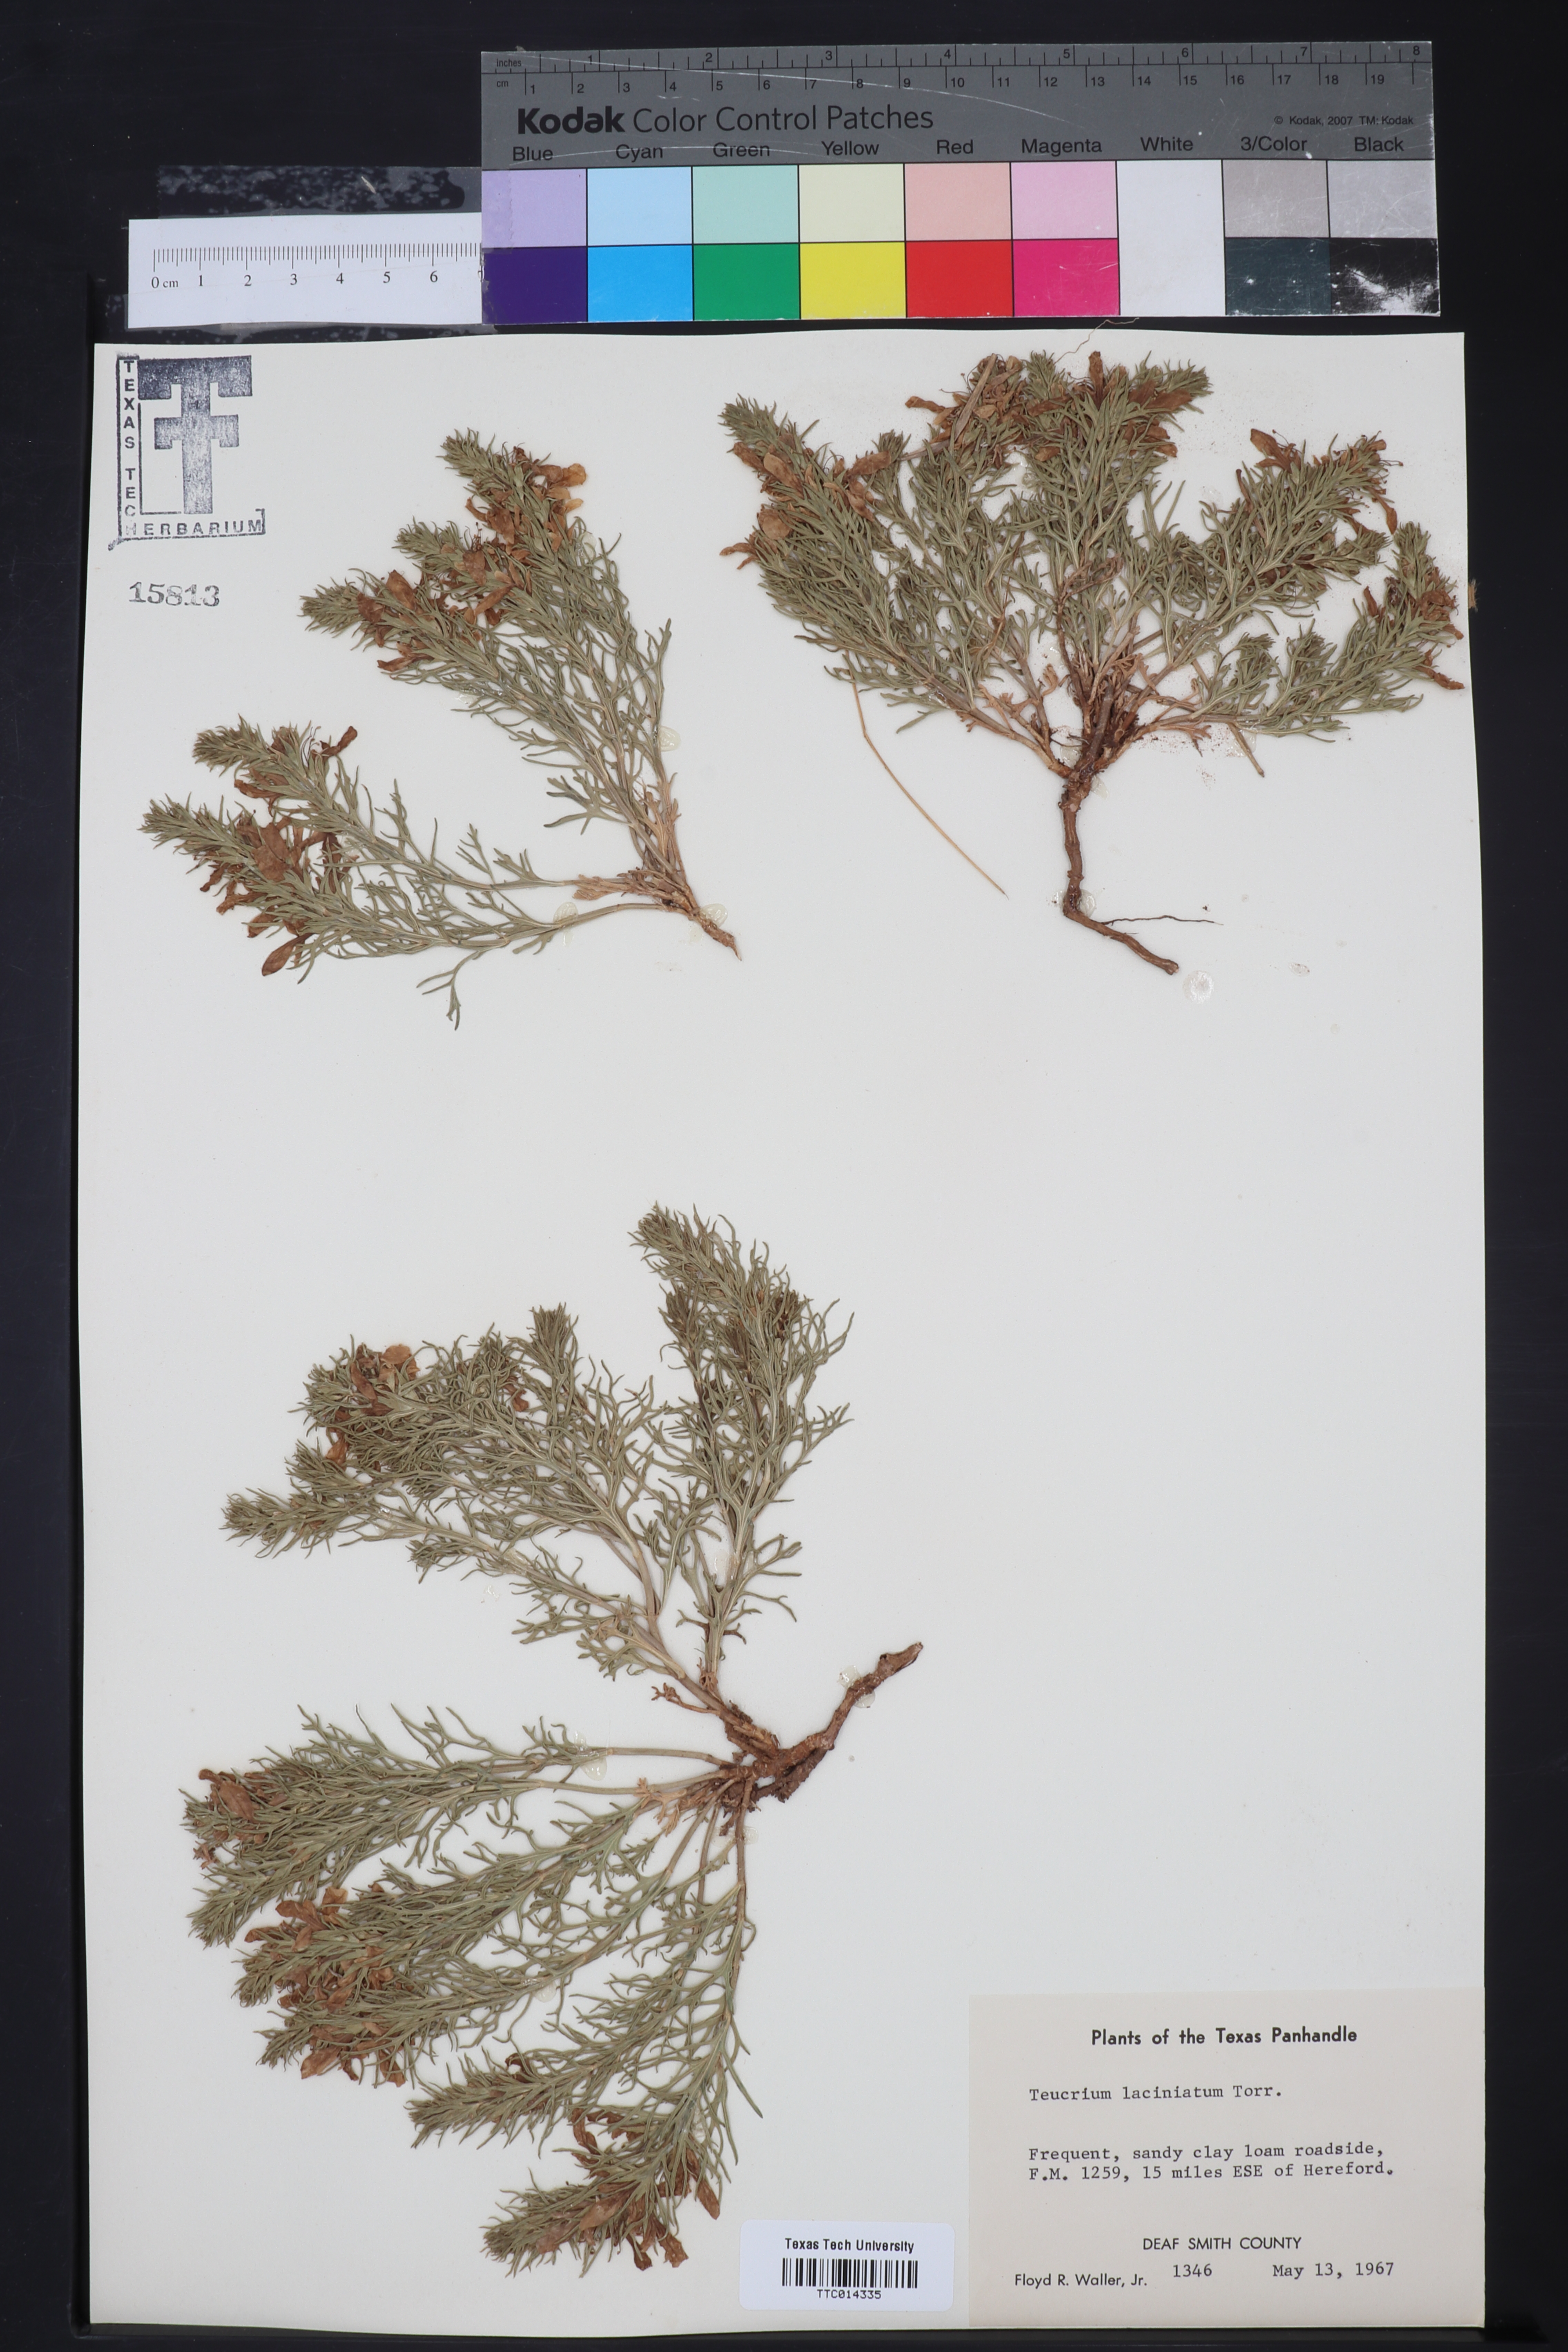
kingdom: Plantae
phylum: Tracheophyta
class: Magnoliopsida
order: Lamiales
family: Lamiaceae
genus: Teucrium
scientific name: Teucrium laciniatum
